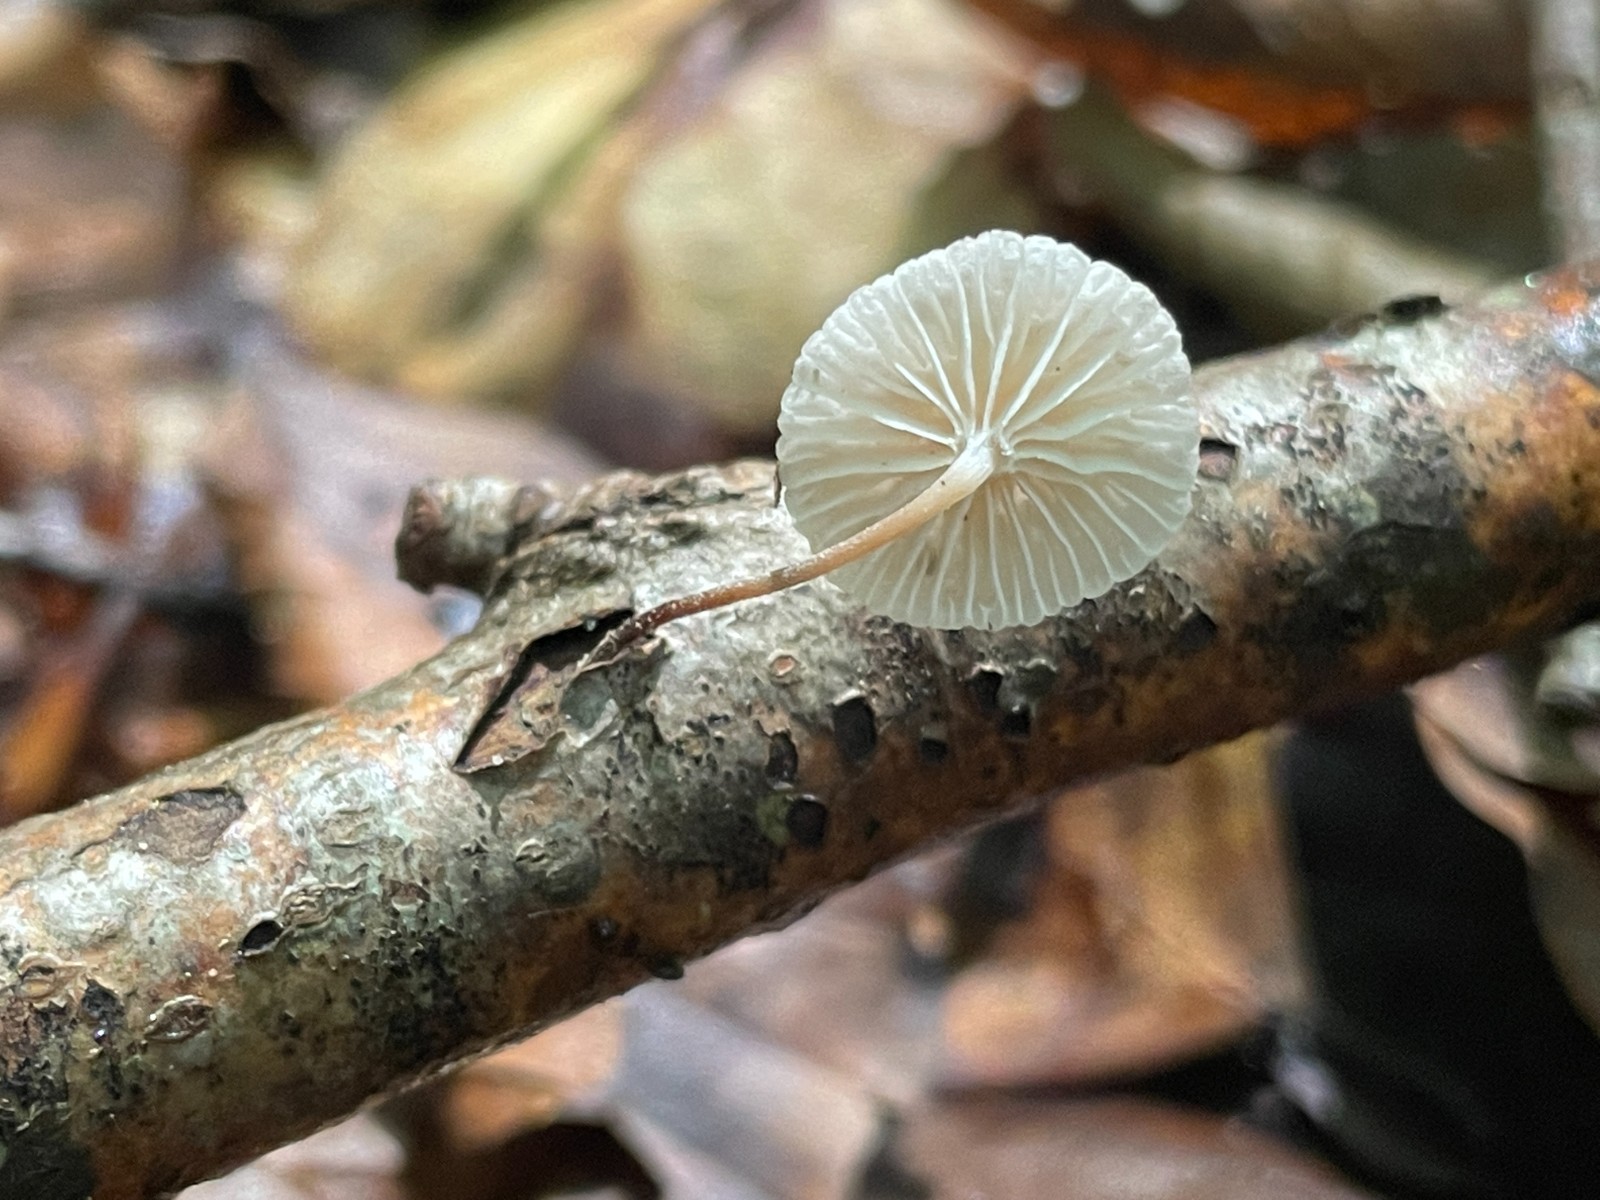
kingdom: Fungi
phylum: Basidiomycota
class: Agaricomycetes
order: Agaricales
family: Omphalotaceae
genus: Collybiopsis
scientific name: Collybiopsis ramealis
